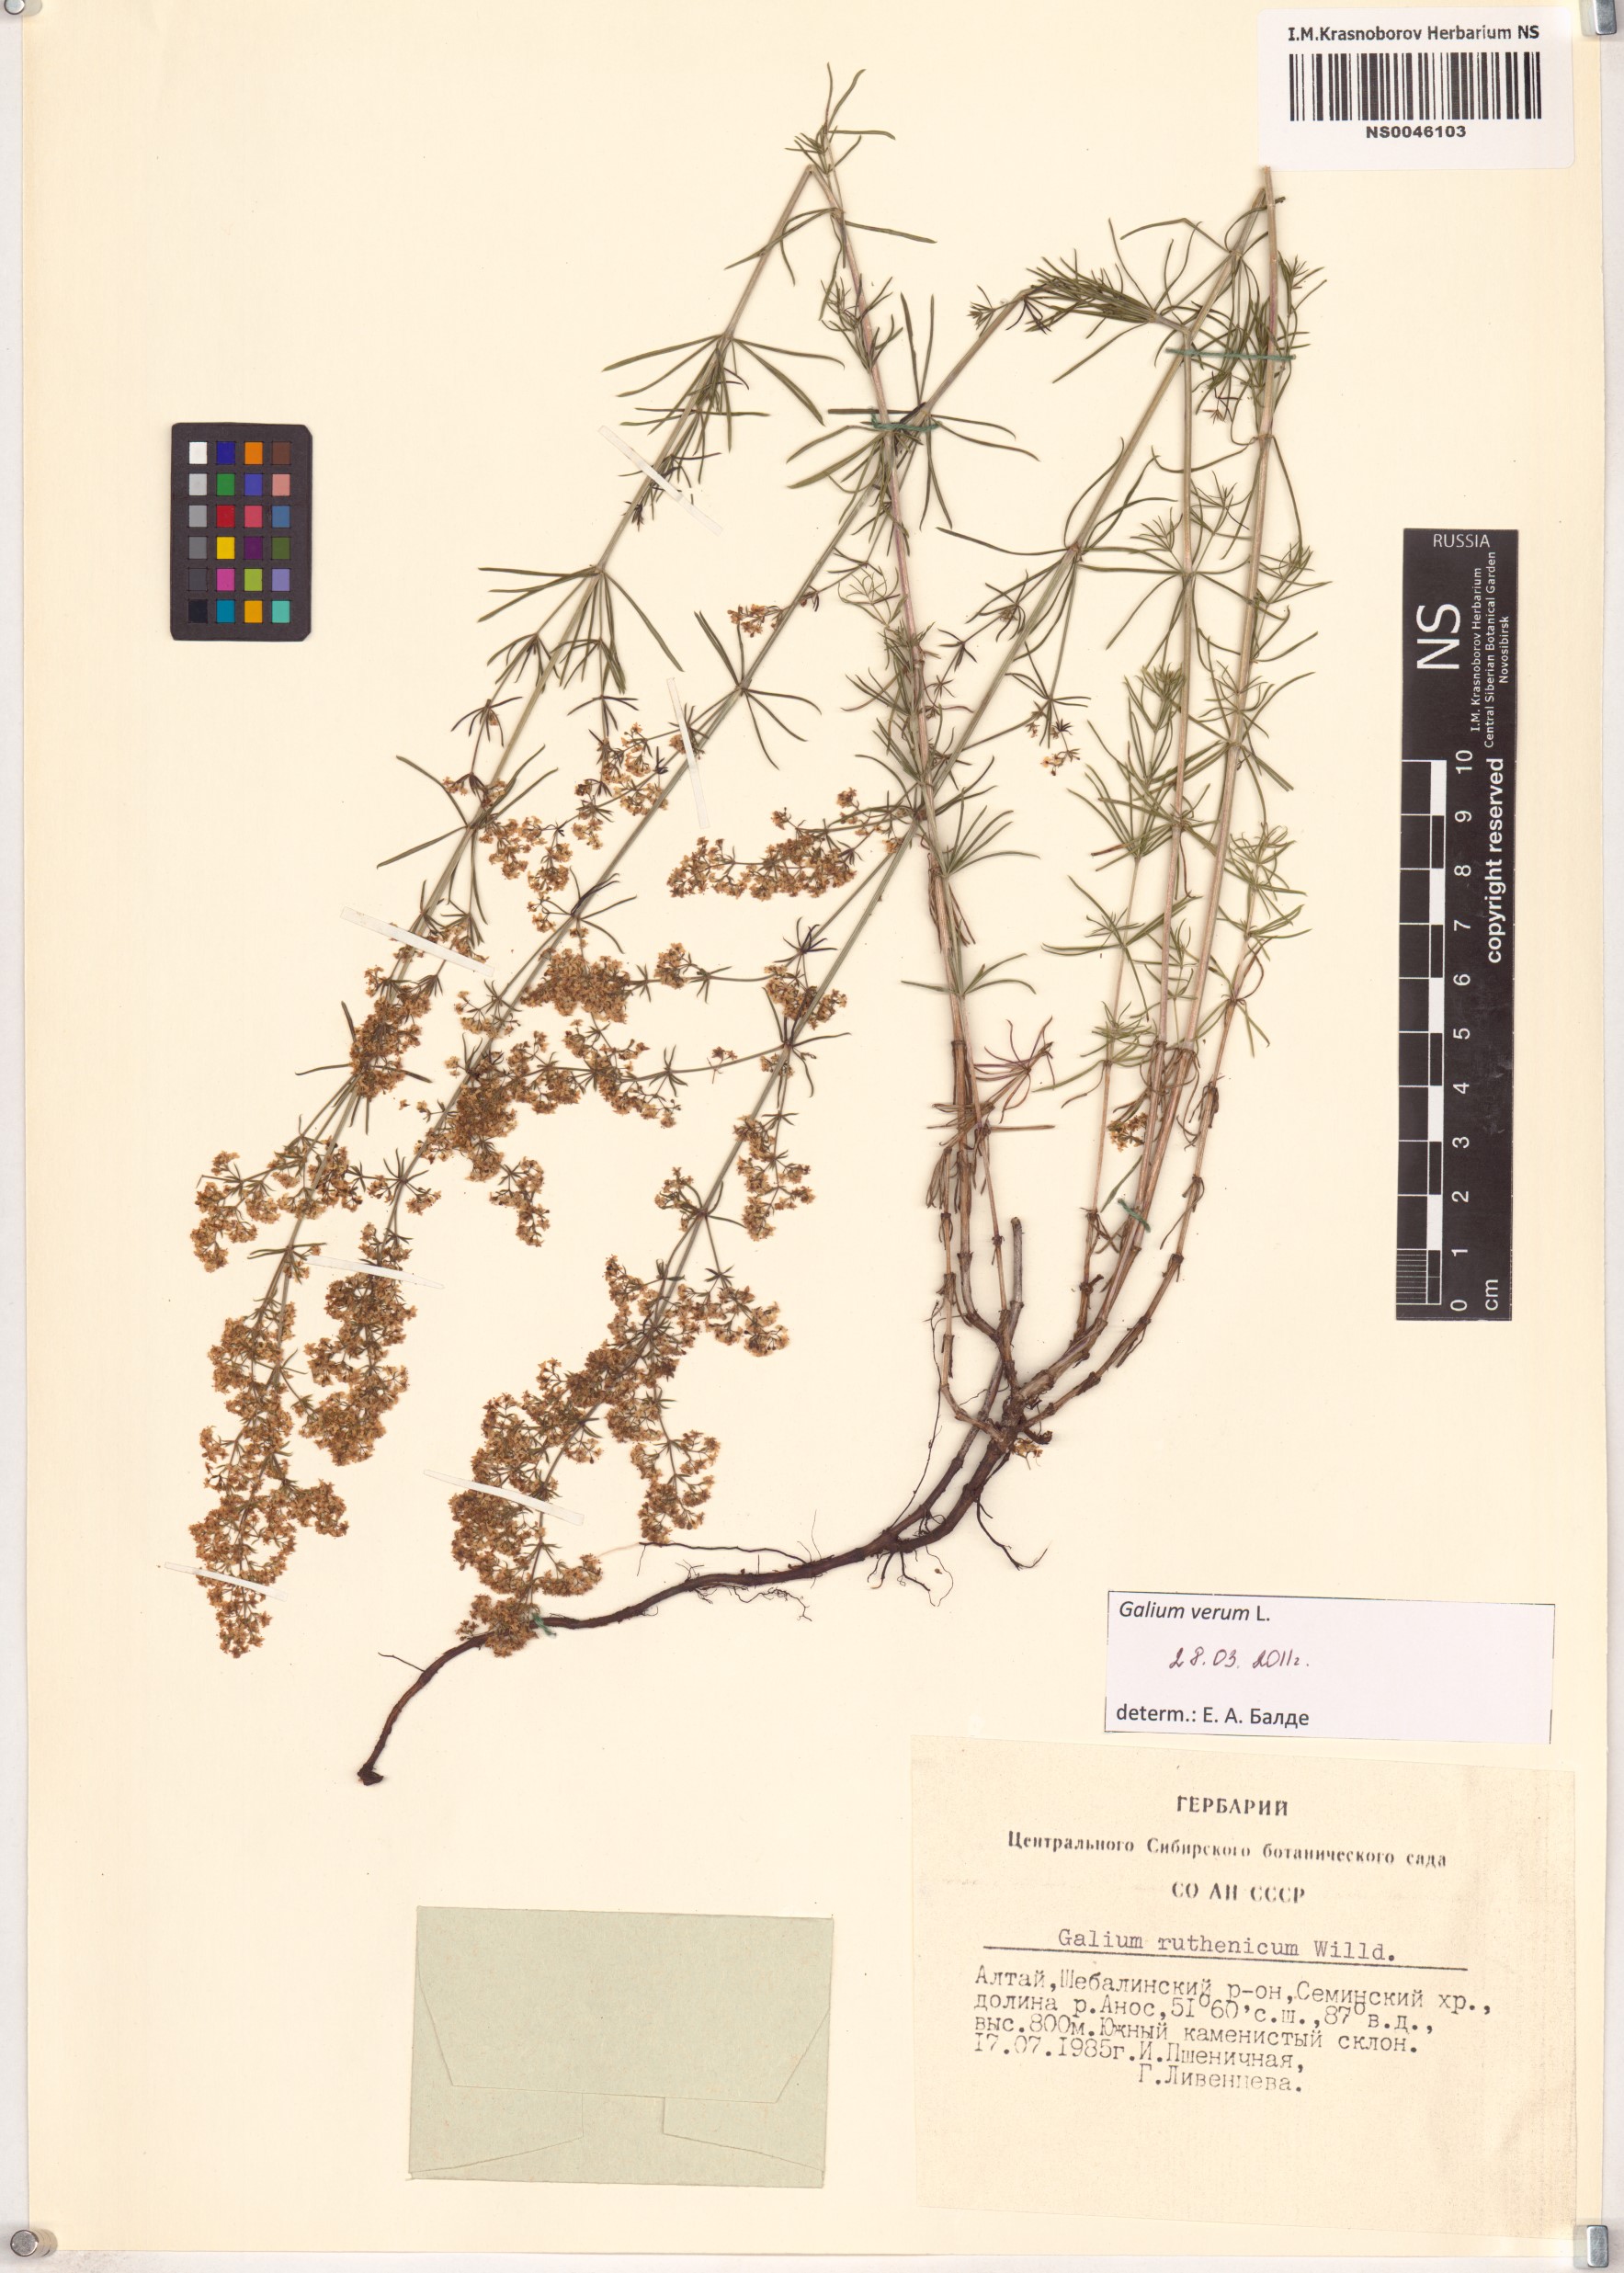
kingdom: Plantae
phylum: Tracheophyta
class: Magnoliopsida
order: Gentianales
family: Rubiaceae
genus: Galium
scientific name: Galium verum
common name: Lady's bedstraw
